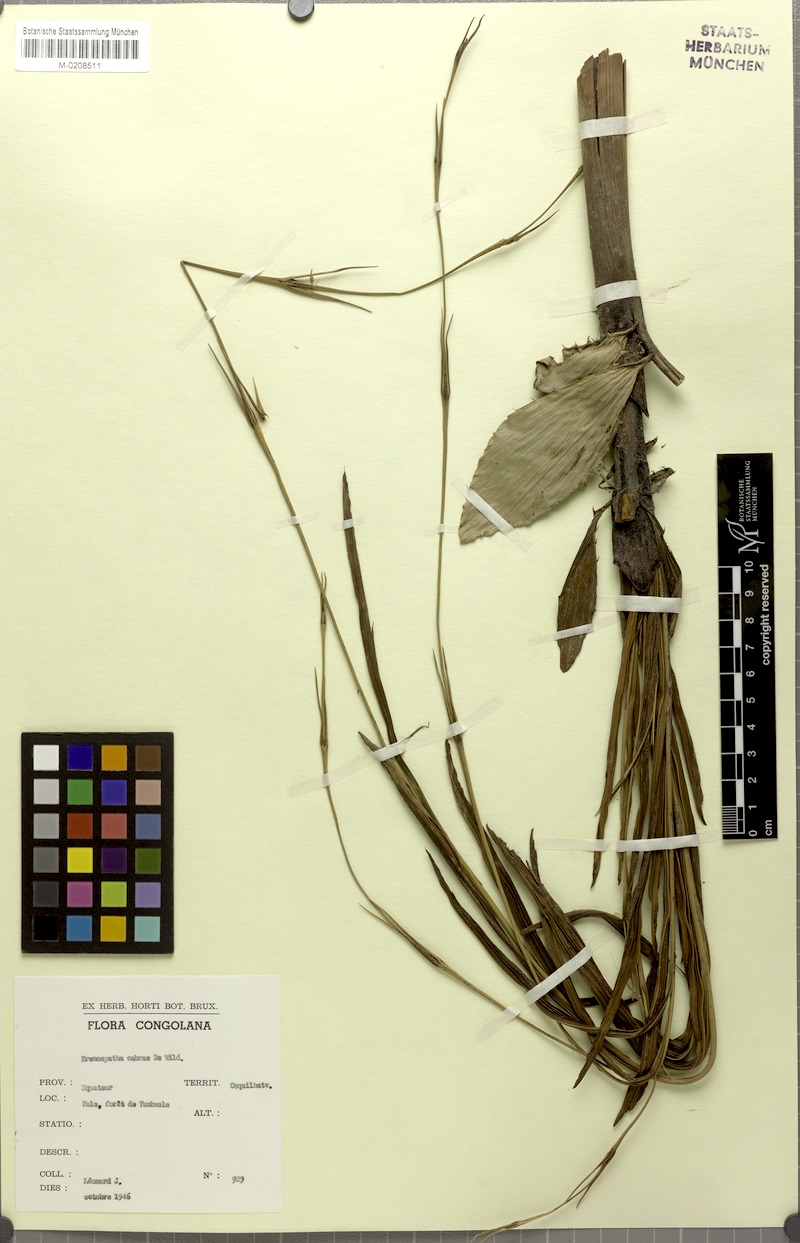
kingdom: Plantae
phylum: Tracheophyta
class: Liliopsida
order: Arecales
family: Arecaceae
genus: Eremospatha
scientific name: Eremospatha cabrae
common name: Rattan
